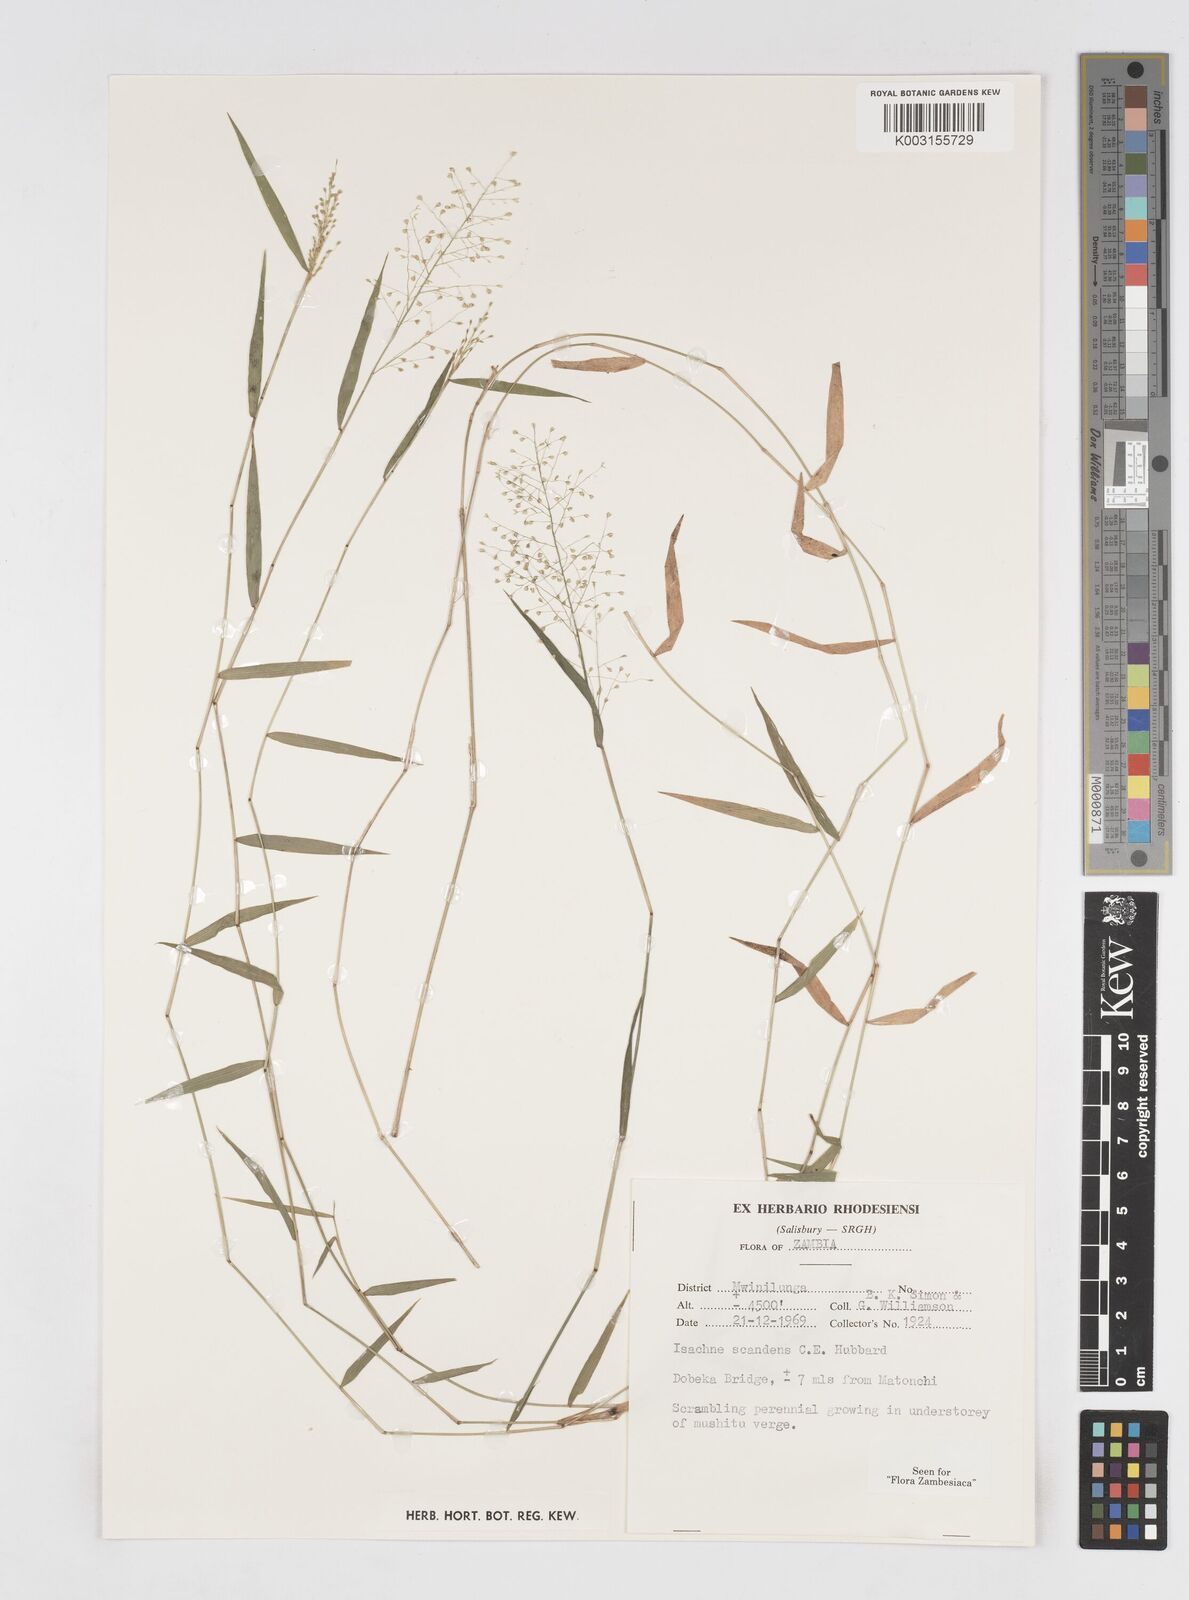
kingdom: Plantae
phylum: Tracheophyta
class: Liliopsida
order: Poales
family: Poaceae
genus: Isachne
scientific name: Isachne albens
